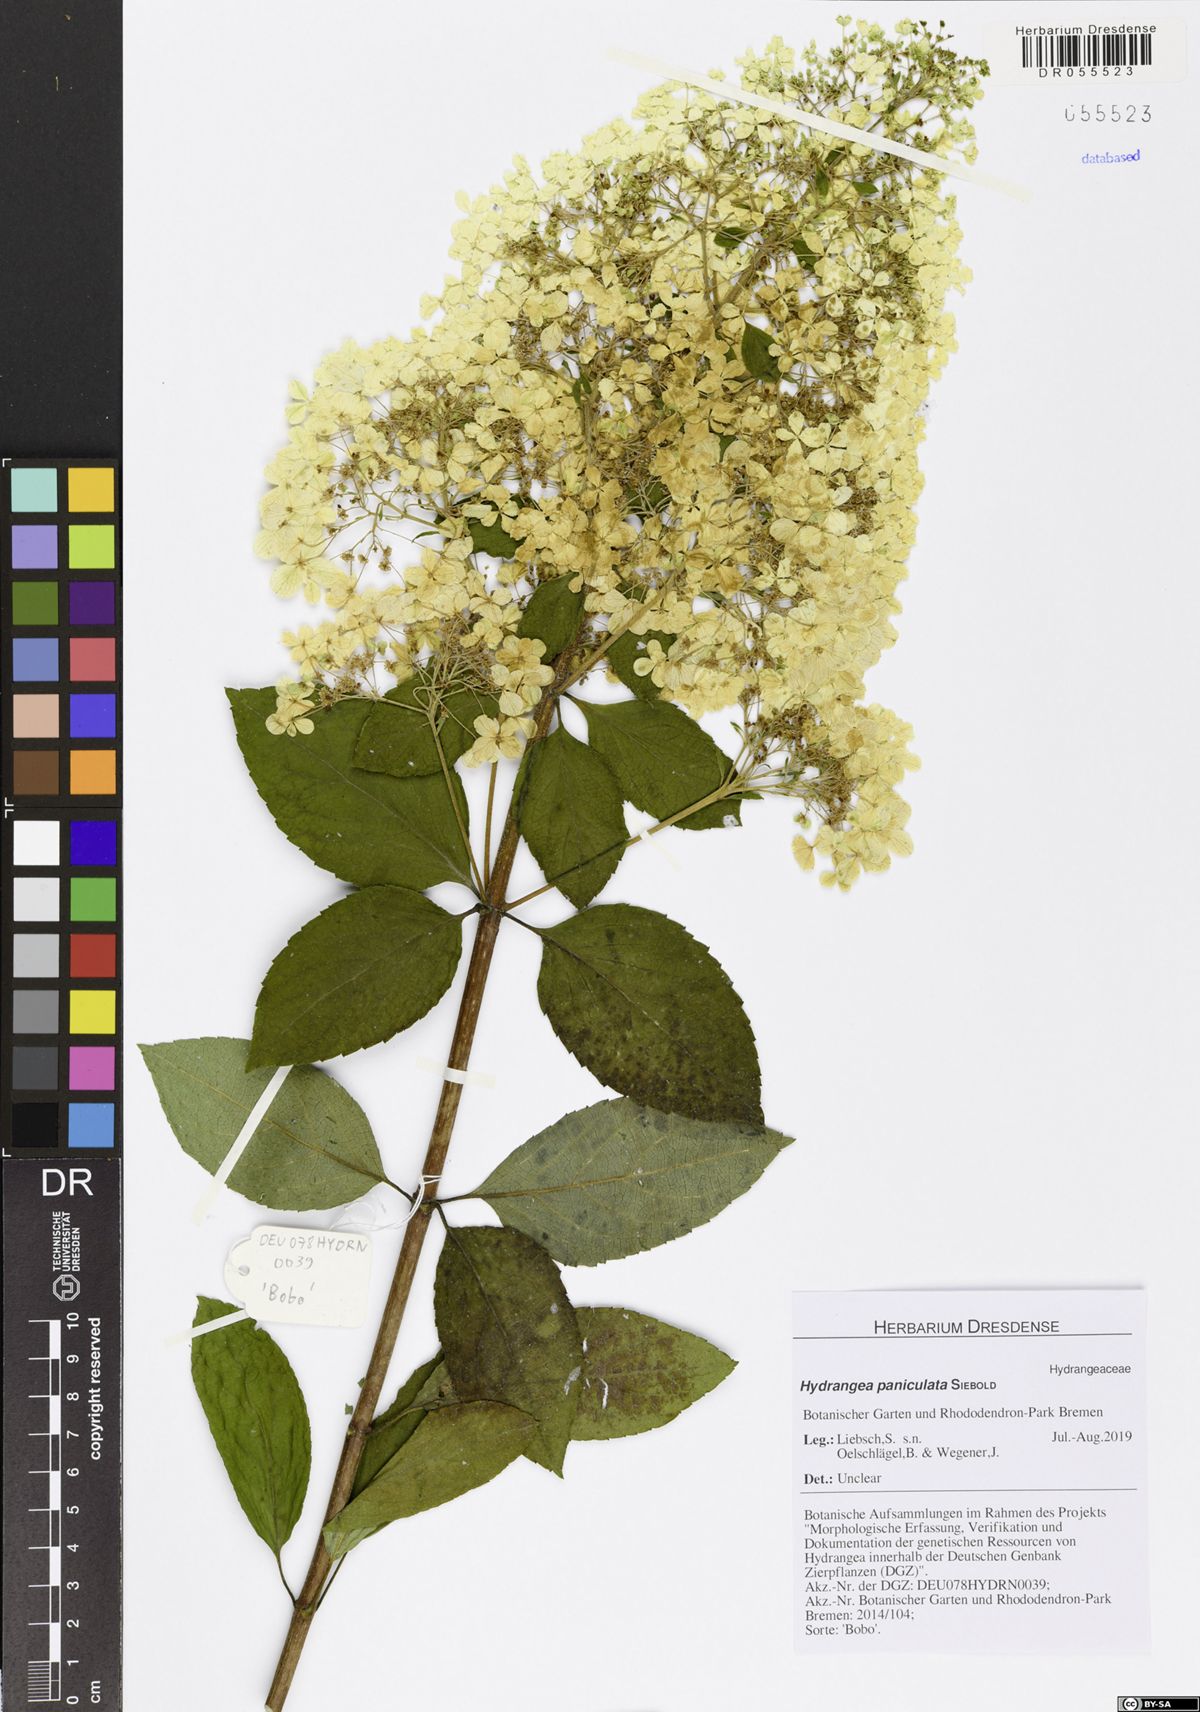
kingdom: Plantae
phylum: Tracheophyta
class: Magnoliopsida
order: Cornales
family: Hydrangeaceae
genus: Hydrangea
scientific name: Hydrangea paniculata
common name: Panicled hydrangea
